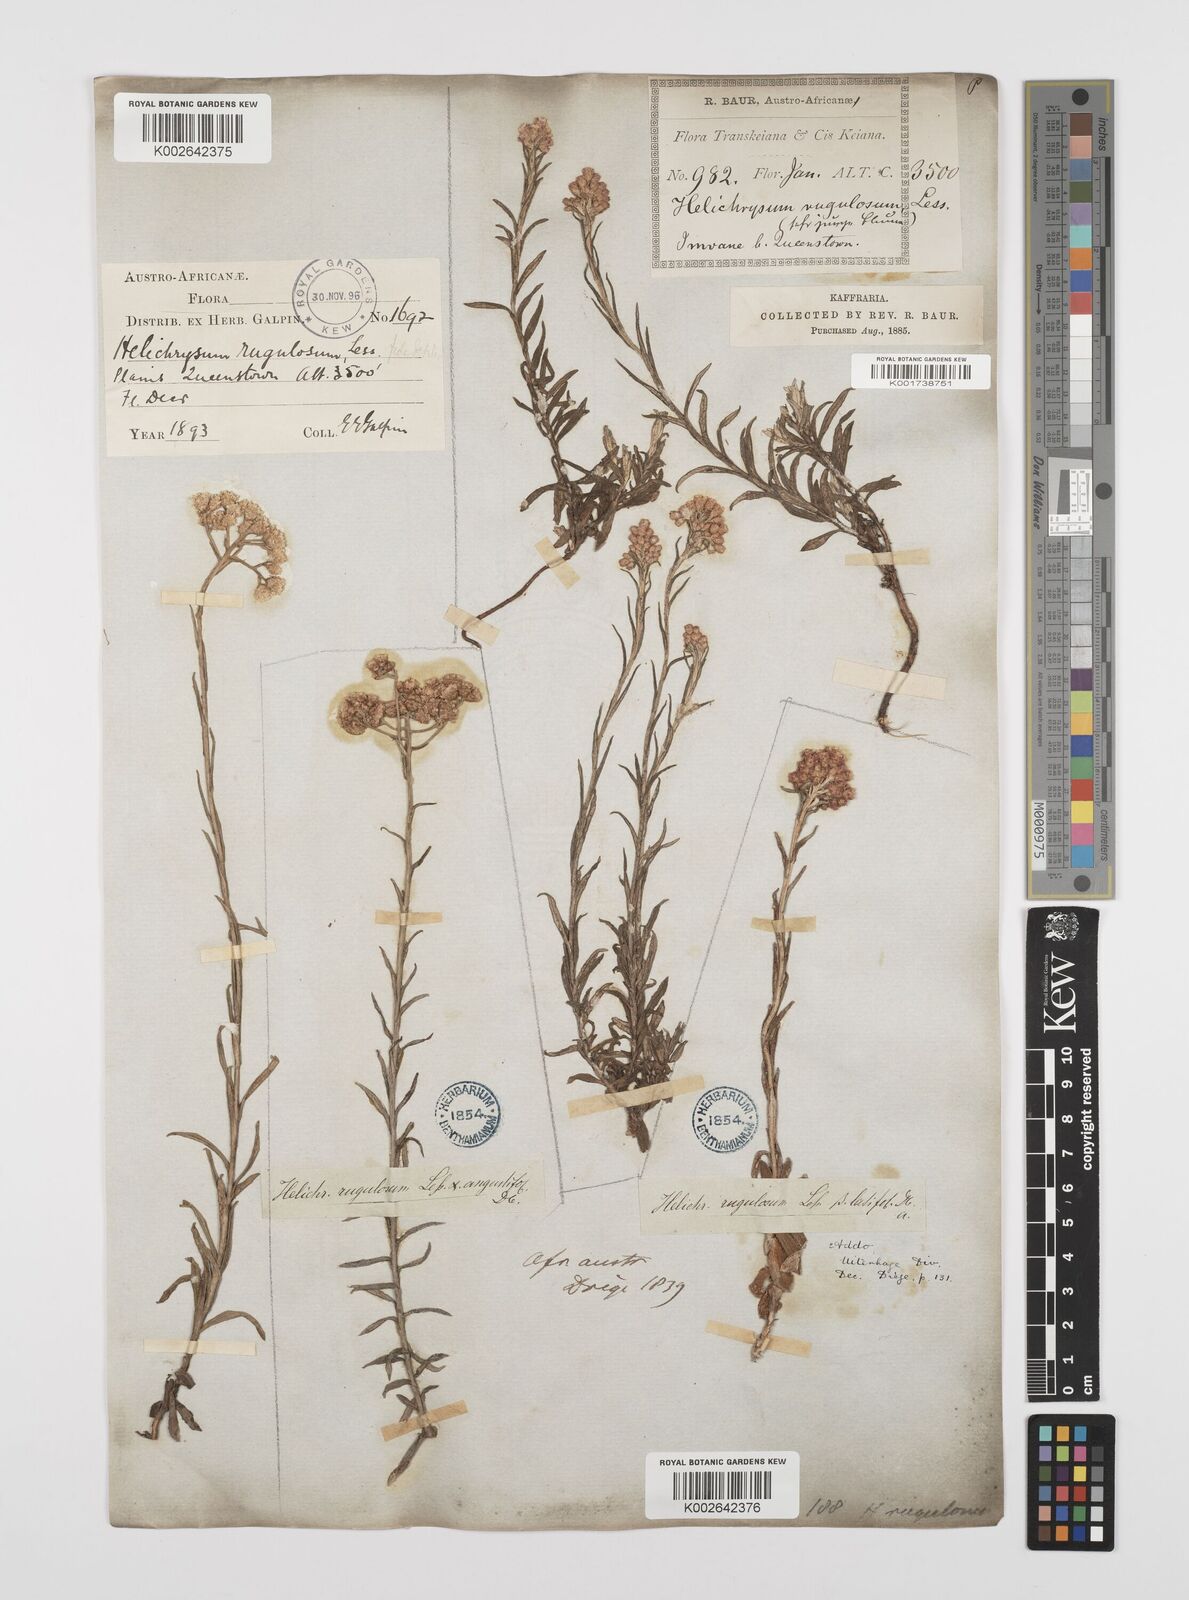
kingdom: Plantae
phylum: Tracheophyta
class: Magnoliopsida
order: Asterales
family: Asteraceae
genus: Helichrysum
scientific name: Helichrysum rugulosum
